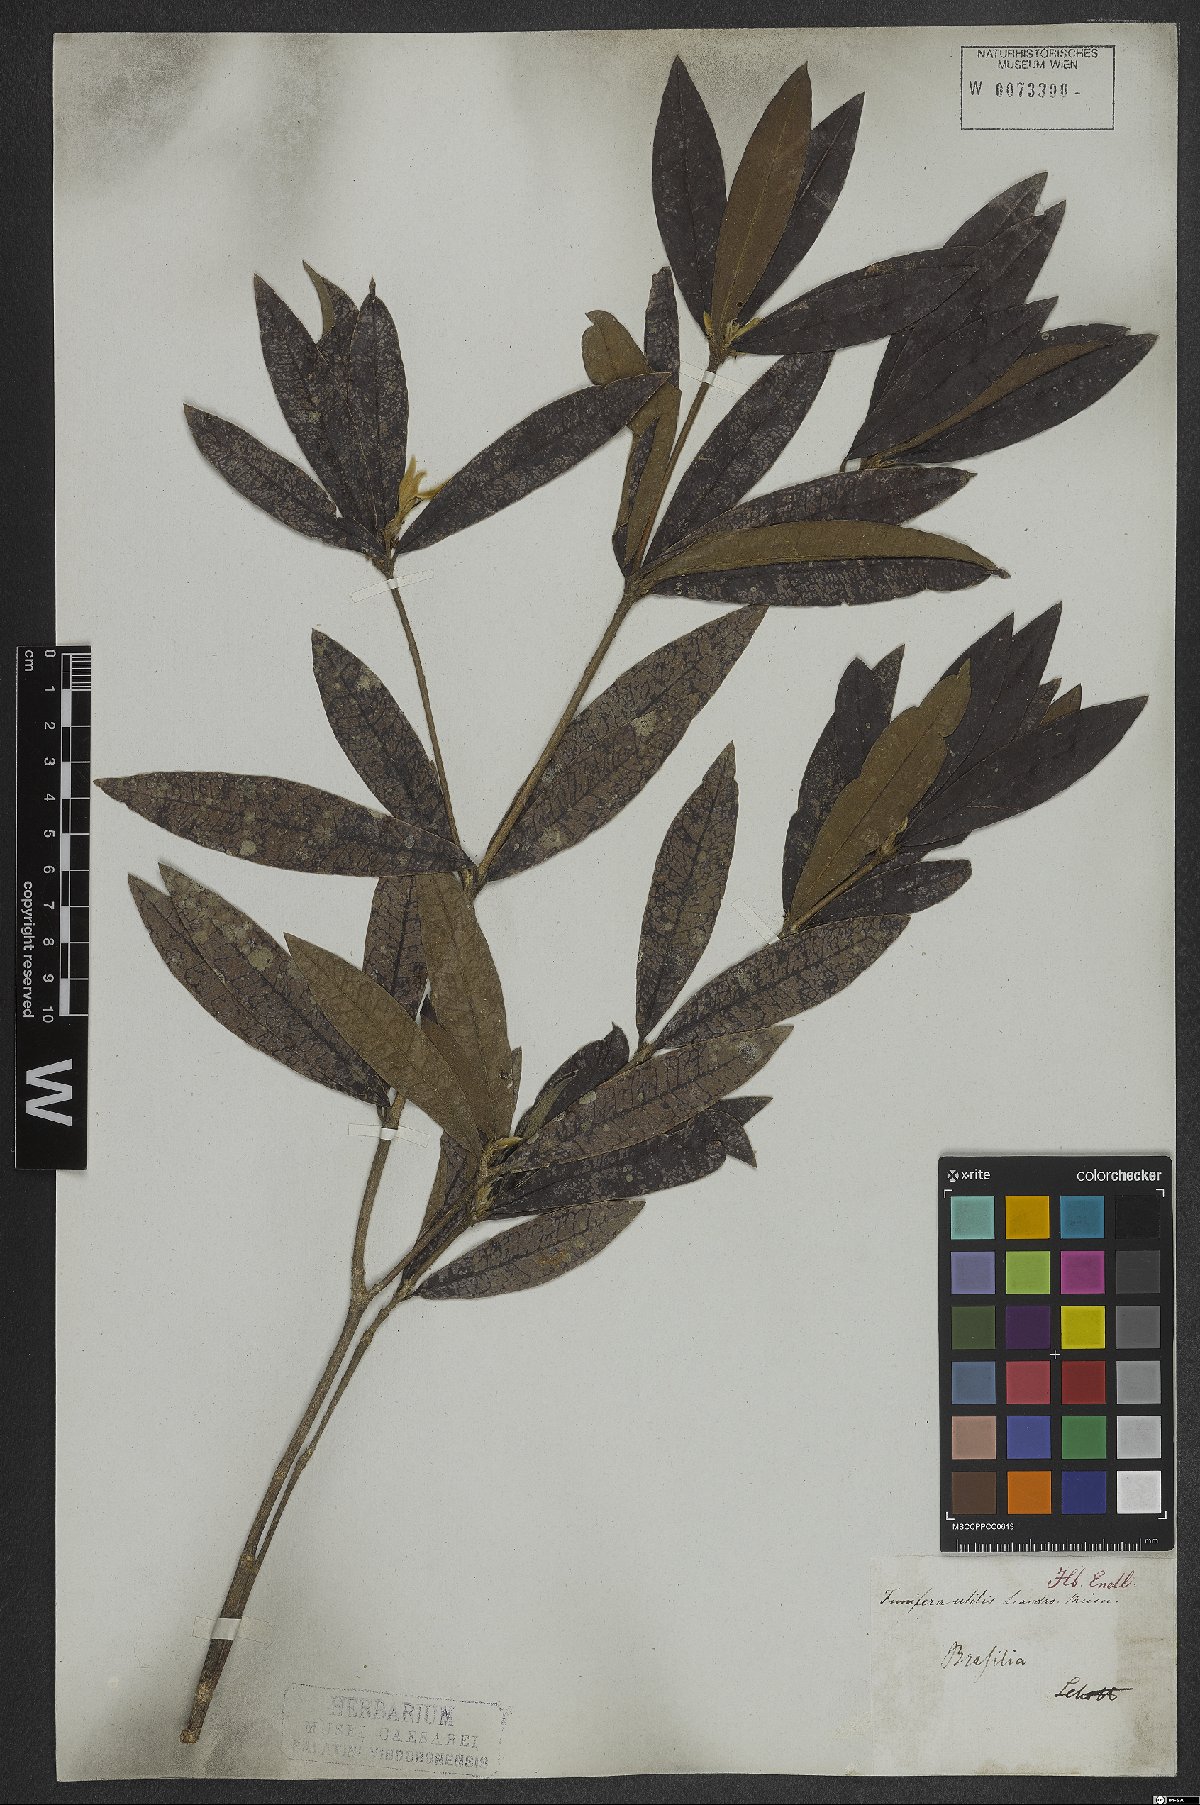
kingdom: Plantae
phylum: Tracheophyta
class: Magnoliopsida
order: Malvales
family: Thymelaeaceae
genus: Funifera
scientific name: Funifera brasiliensis
